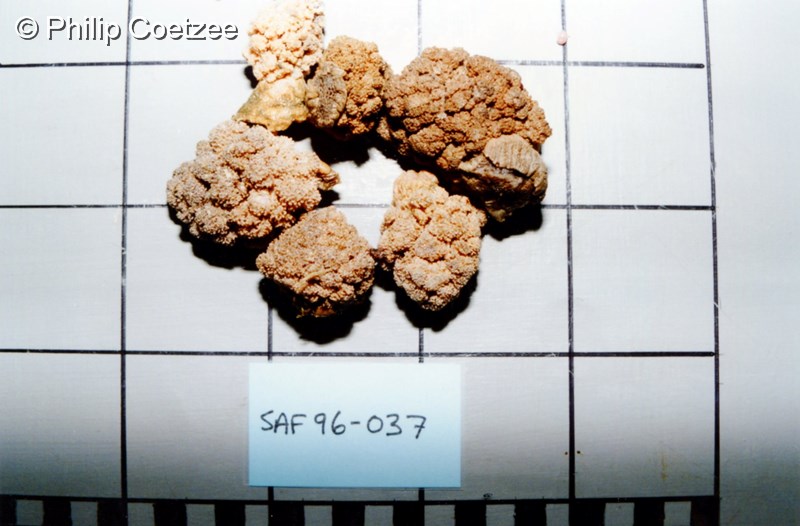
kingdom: Animalia
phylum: Cnidaria
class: Anthozoa
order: Malacalcyonacea
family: Capnellidae
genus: Eunephthya
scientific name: Eunephthya thyrsoidea
